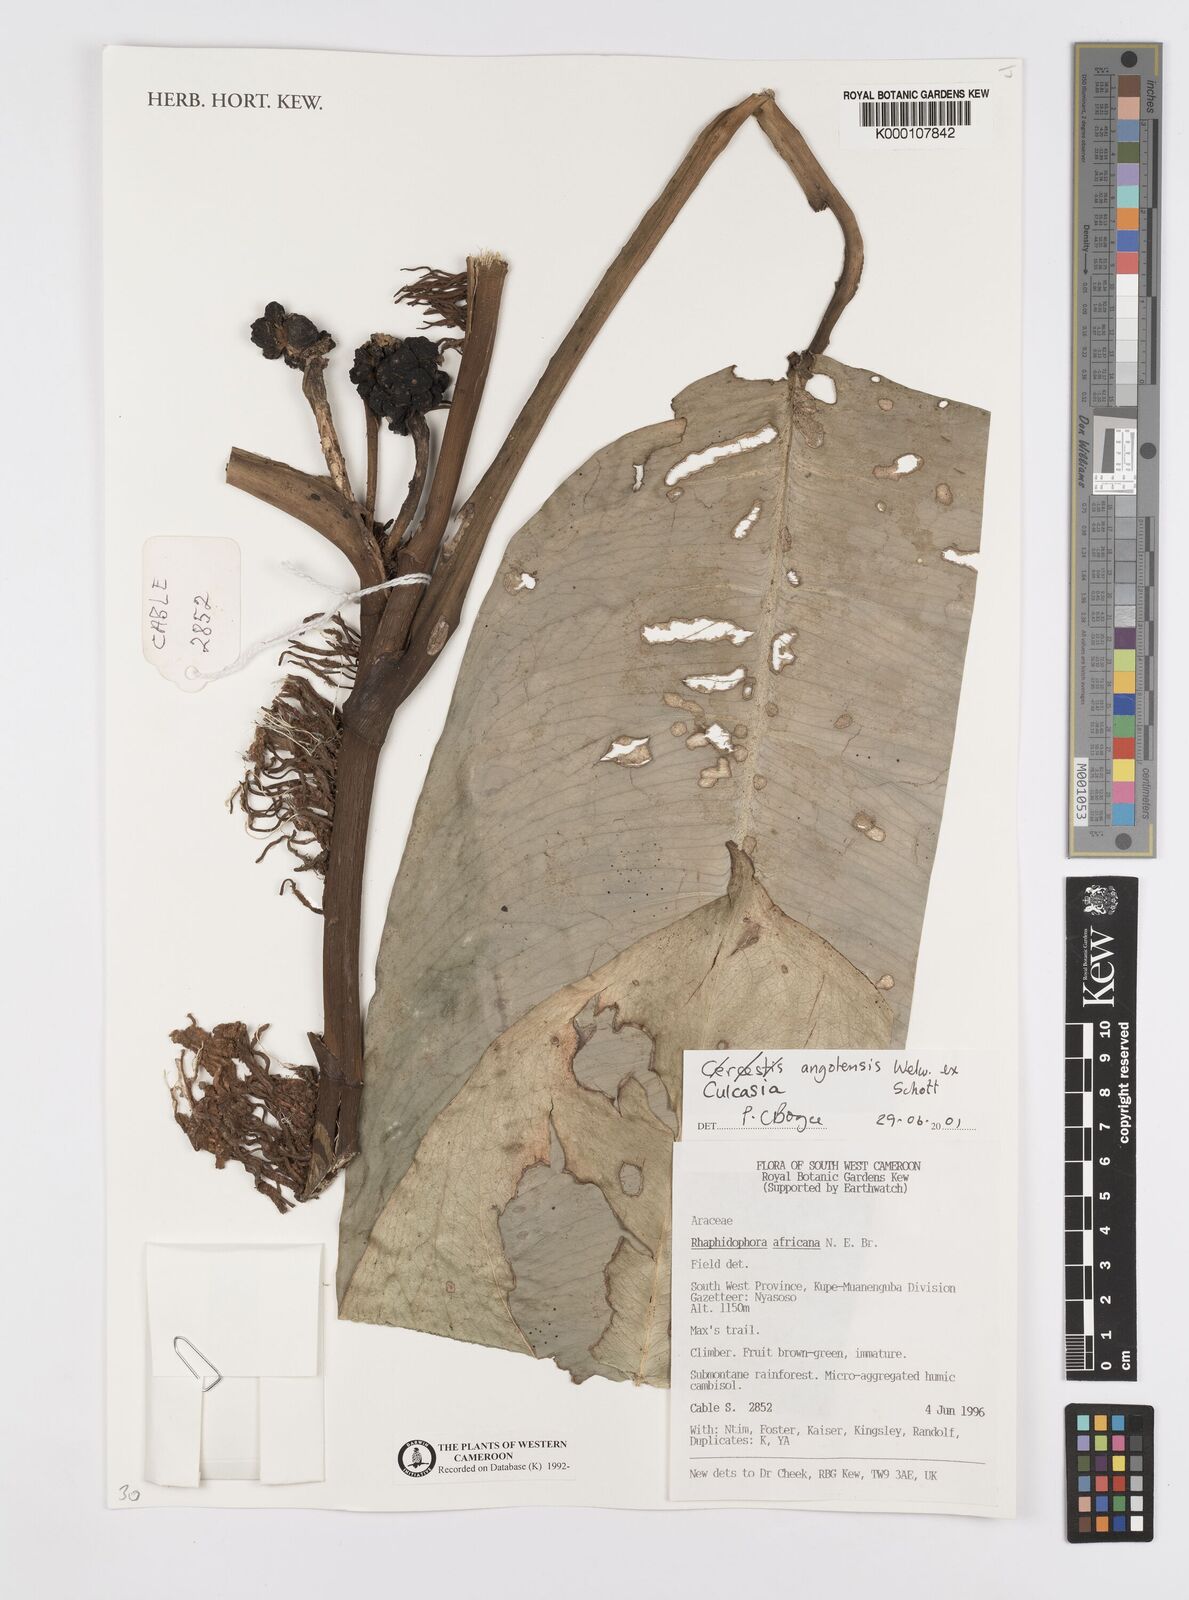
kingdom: Plantae
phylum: Tracheophyta
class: Liliopsida
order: Alismatales
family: Araceae
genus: Culcasia
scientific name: Culcasia angolensis
